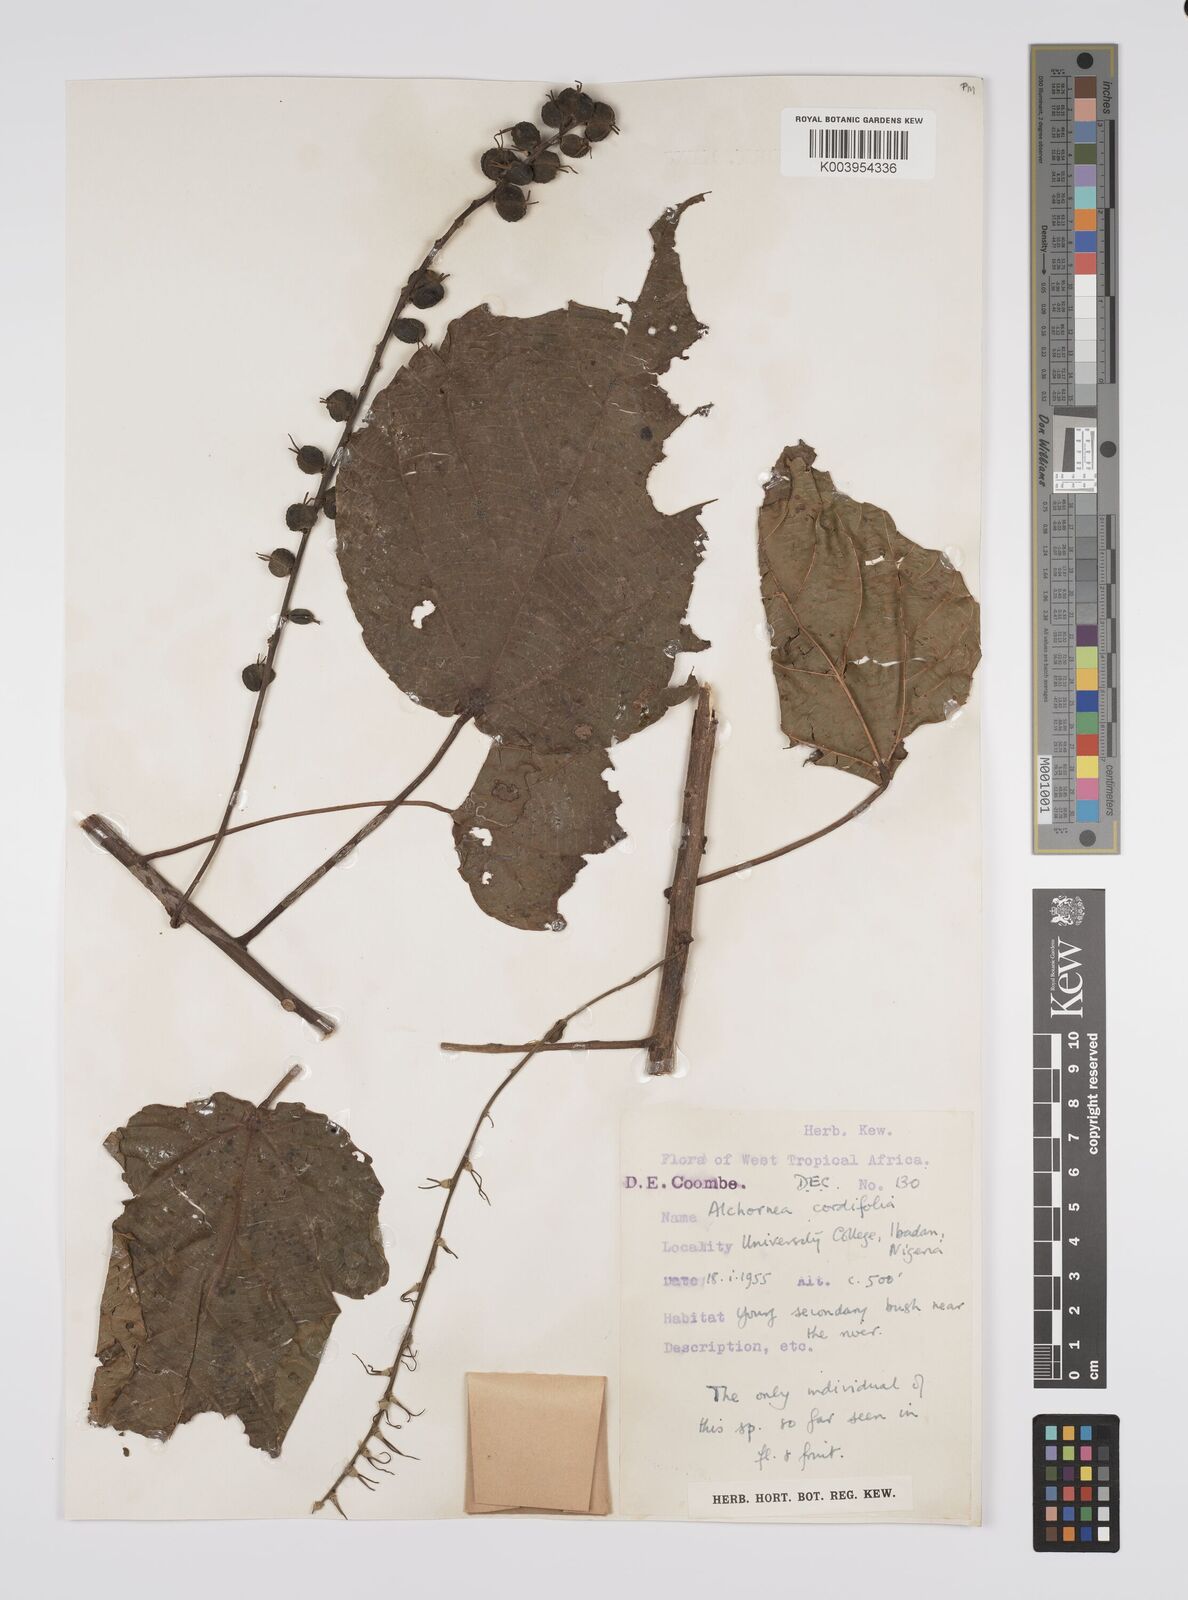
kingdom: Plantae
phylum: Tracheophyta
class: Magnoliopsida
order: Malpighiales
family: Euphorbiaceae
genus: Alchornea
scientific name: Alchornea cordifolia
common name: Christmasbush
